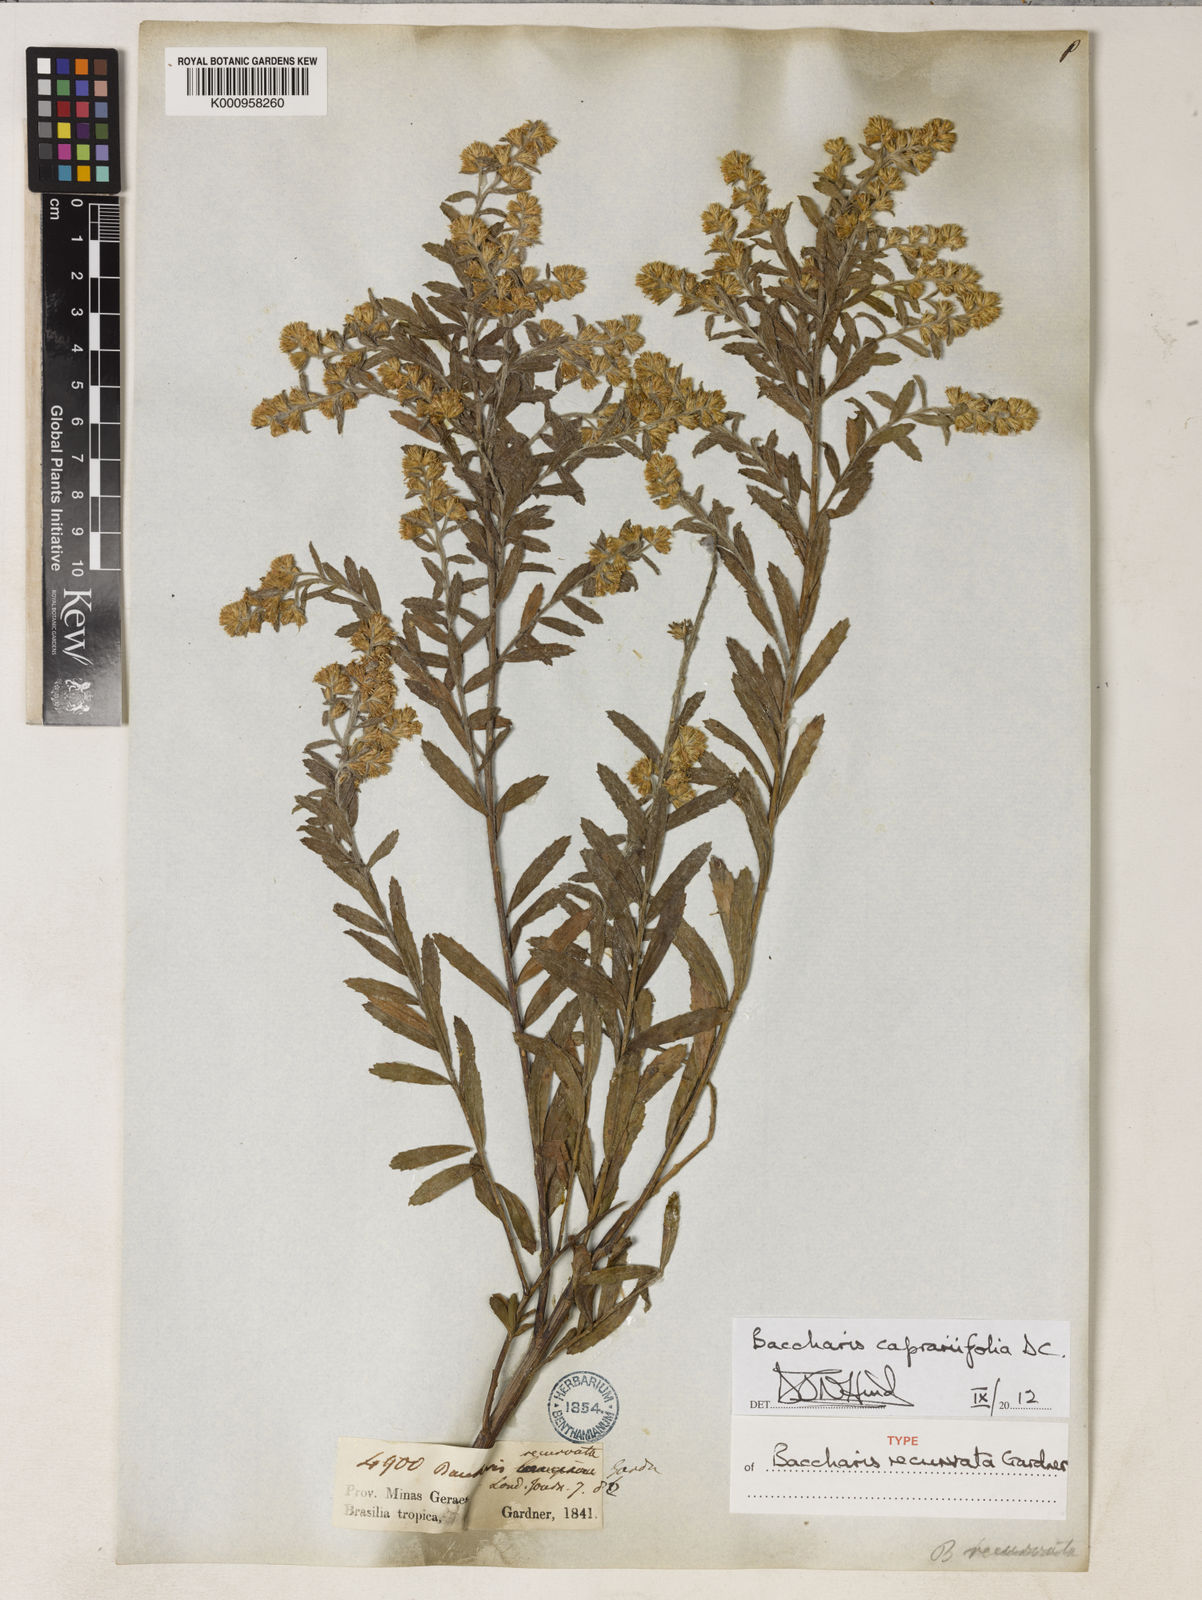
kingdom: Plantae
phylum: Tracheophyta
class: Magnoliopsida
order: Asterales
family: Asteraceae
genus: Baccharis
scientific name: Baccharis caprariifolia
